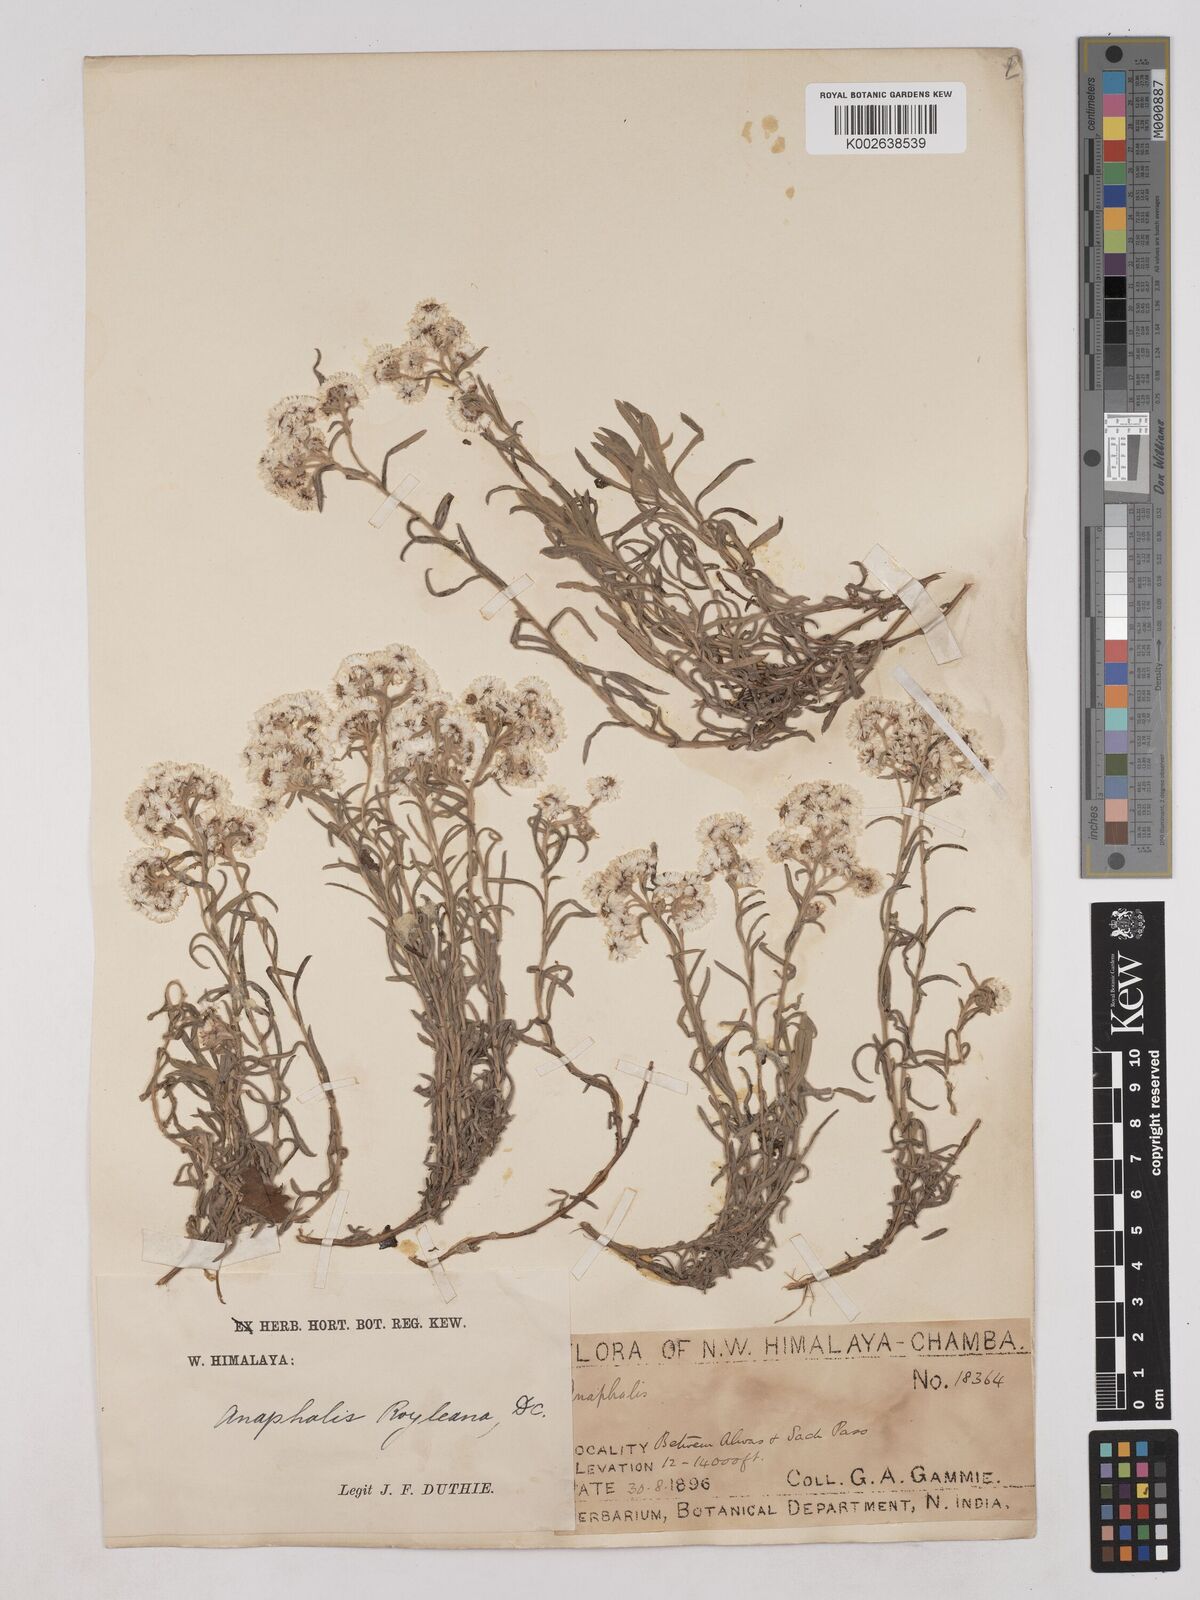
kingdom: Plantae
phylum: Tracheophyta
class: Magnoliopsida
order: Asterales
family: Asteraceae
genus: Anaphalis
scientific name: Anaphalis royleana
